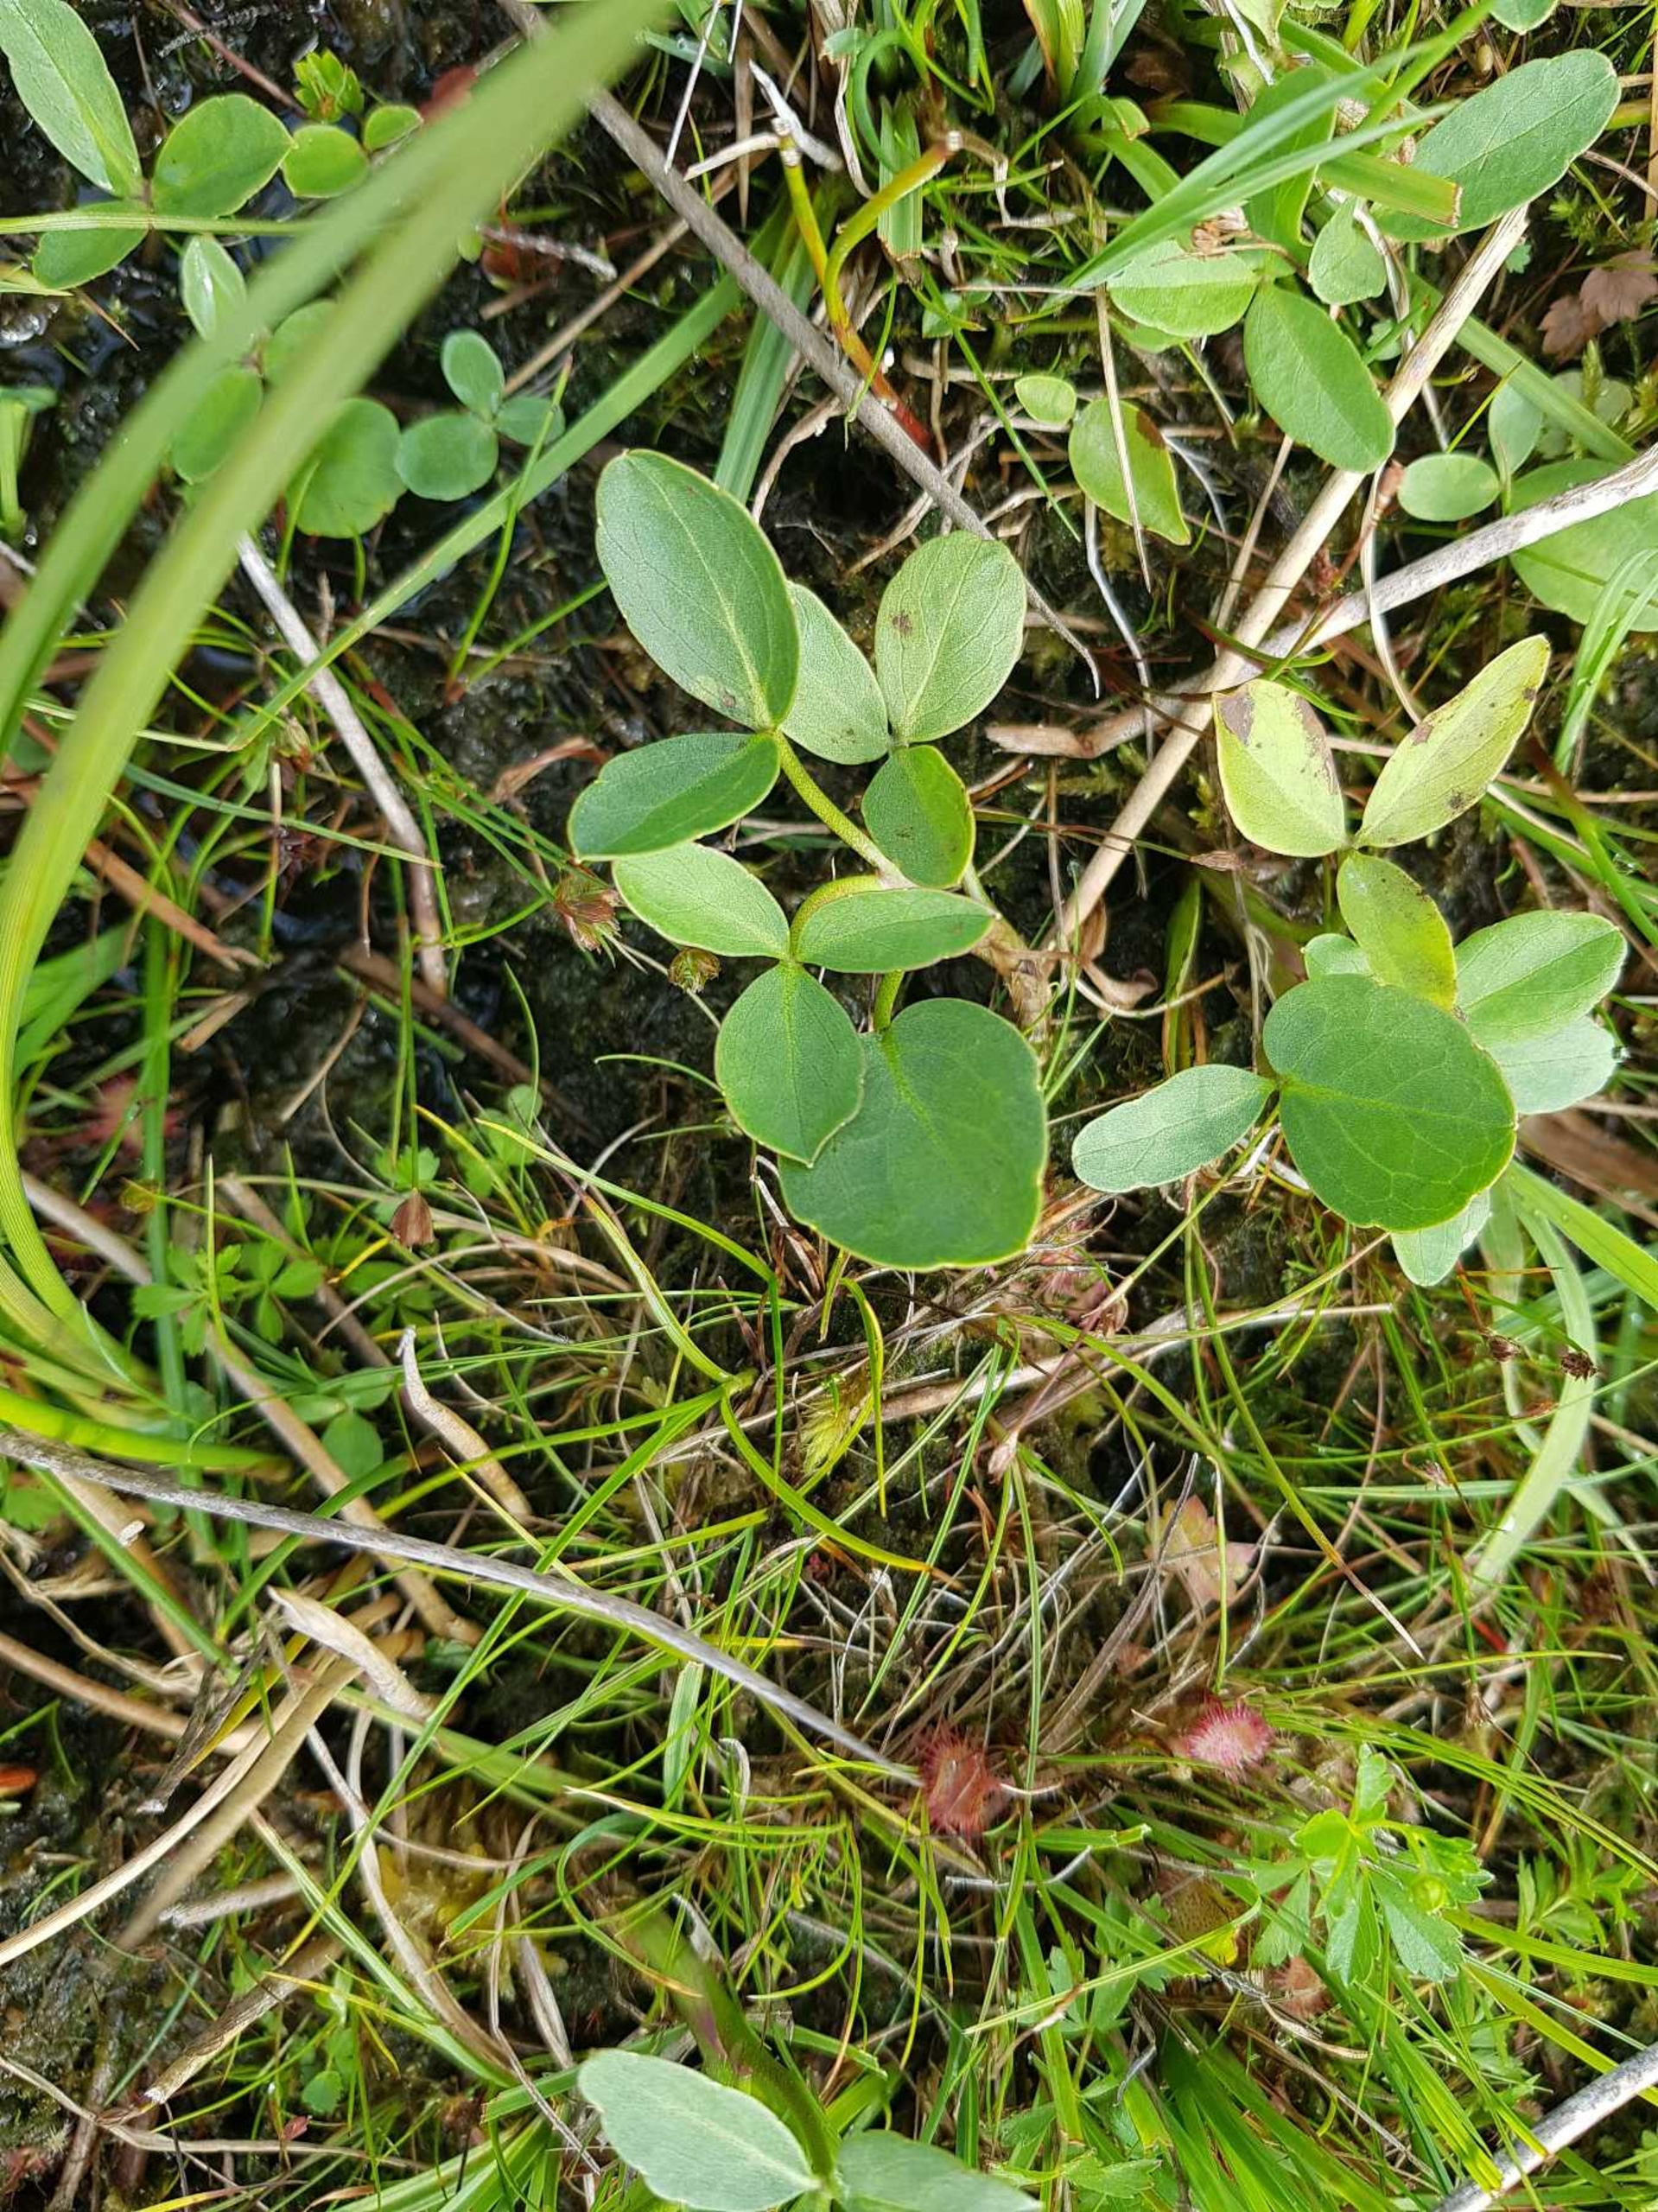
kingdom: Plantae
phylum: Tracheophyta
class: Magnoliopsida
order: Asterales
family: Menyanthaceae
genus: Menyanthes
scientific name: Menyanthes trifoliata
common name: Bukkeblad
